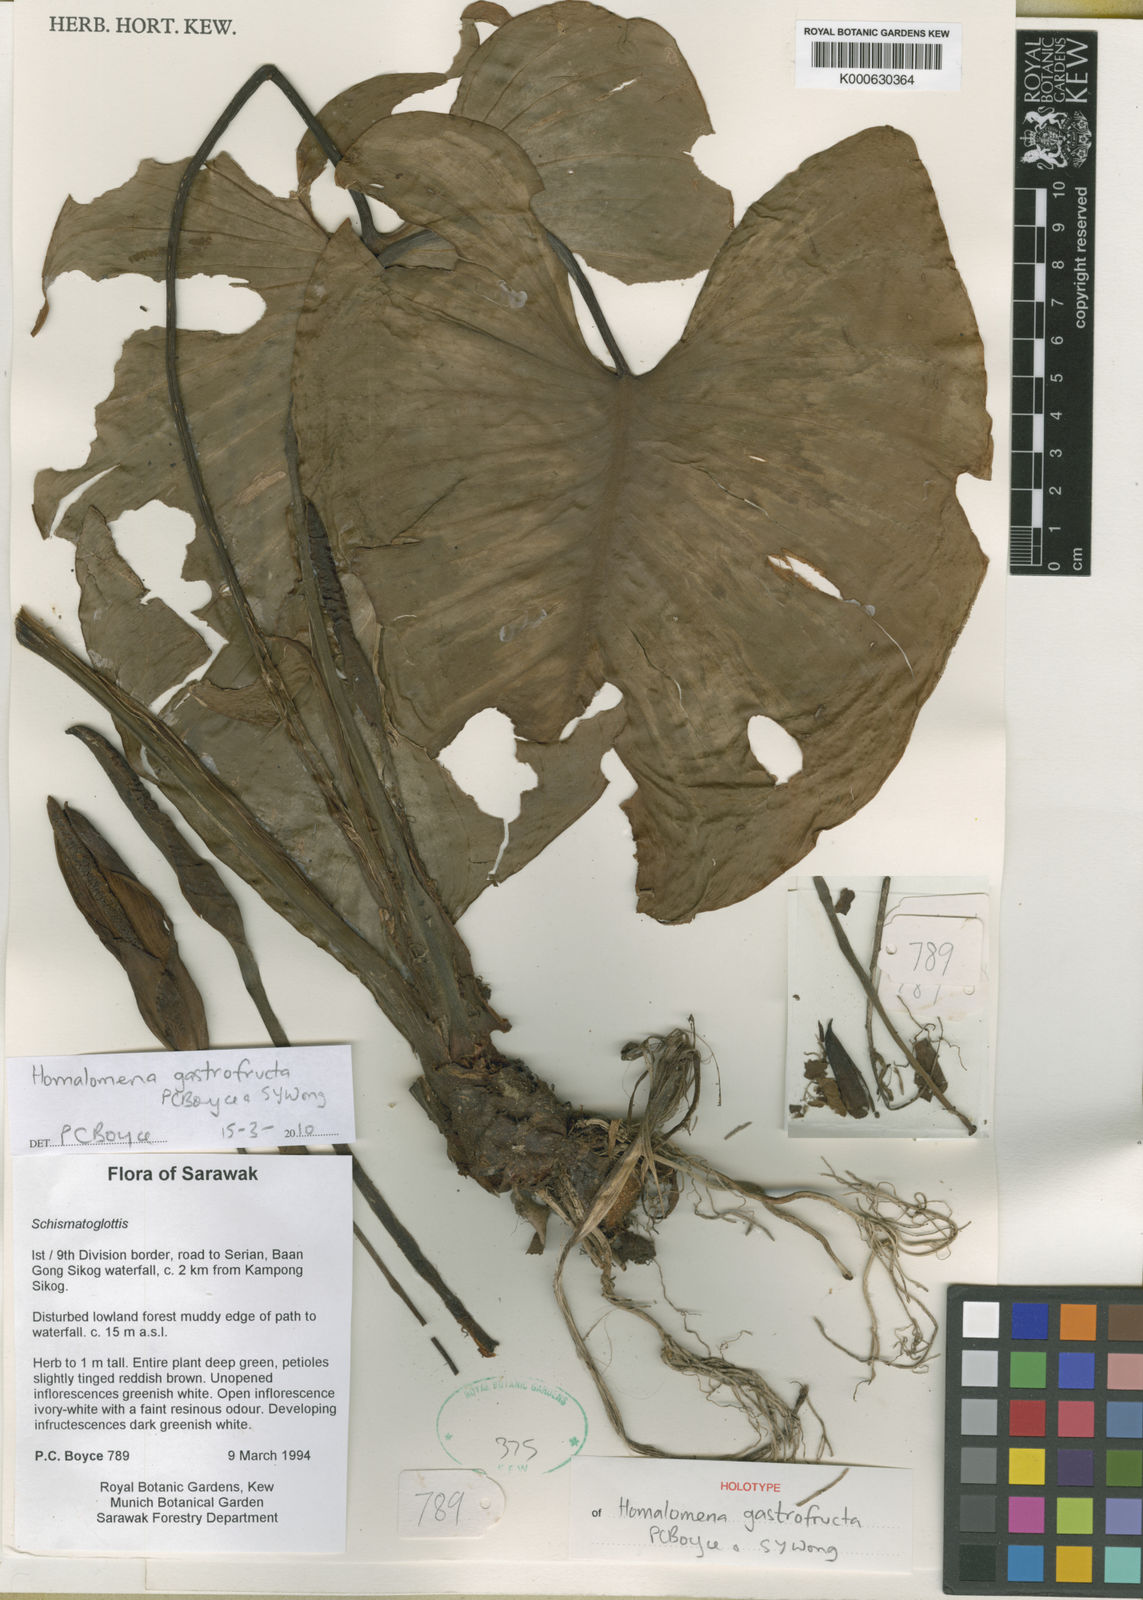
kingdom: Plantae
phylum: Tracheophyta
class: Liliopsida
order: Alismatales
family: Araceae
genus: Homalomena
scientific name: Homalomena gastrofructa
